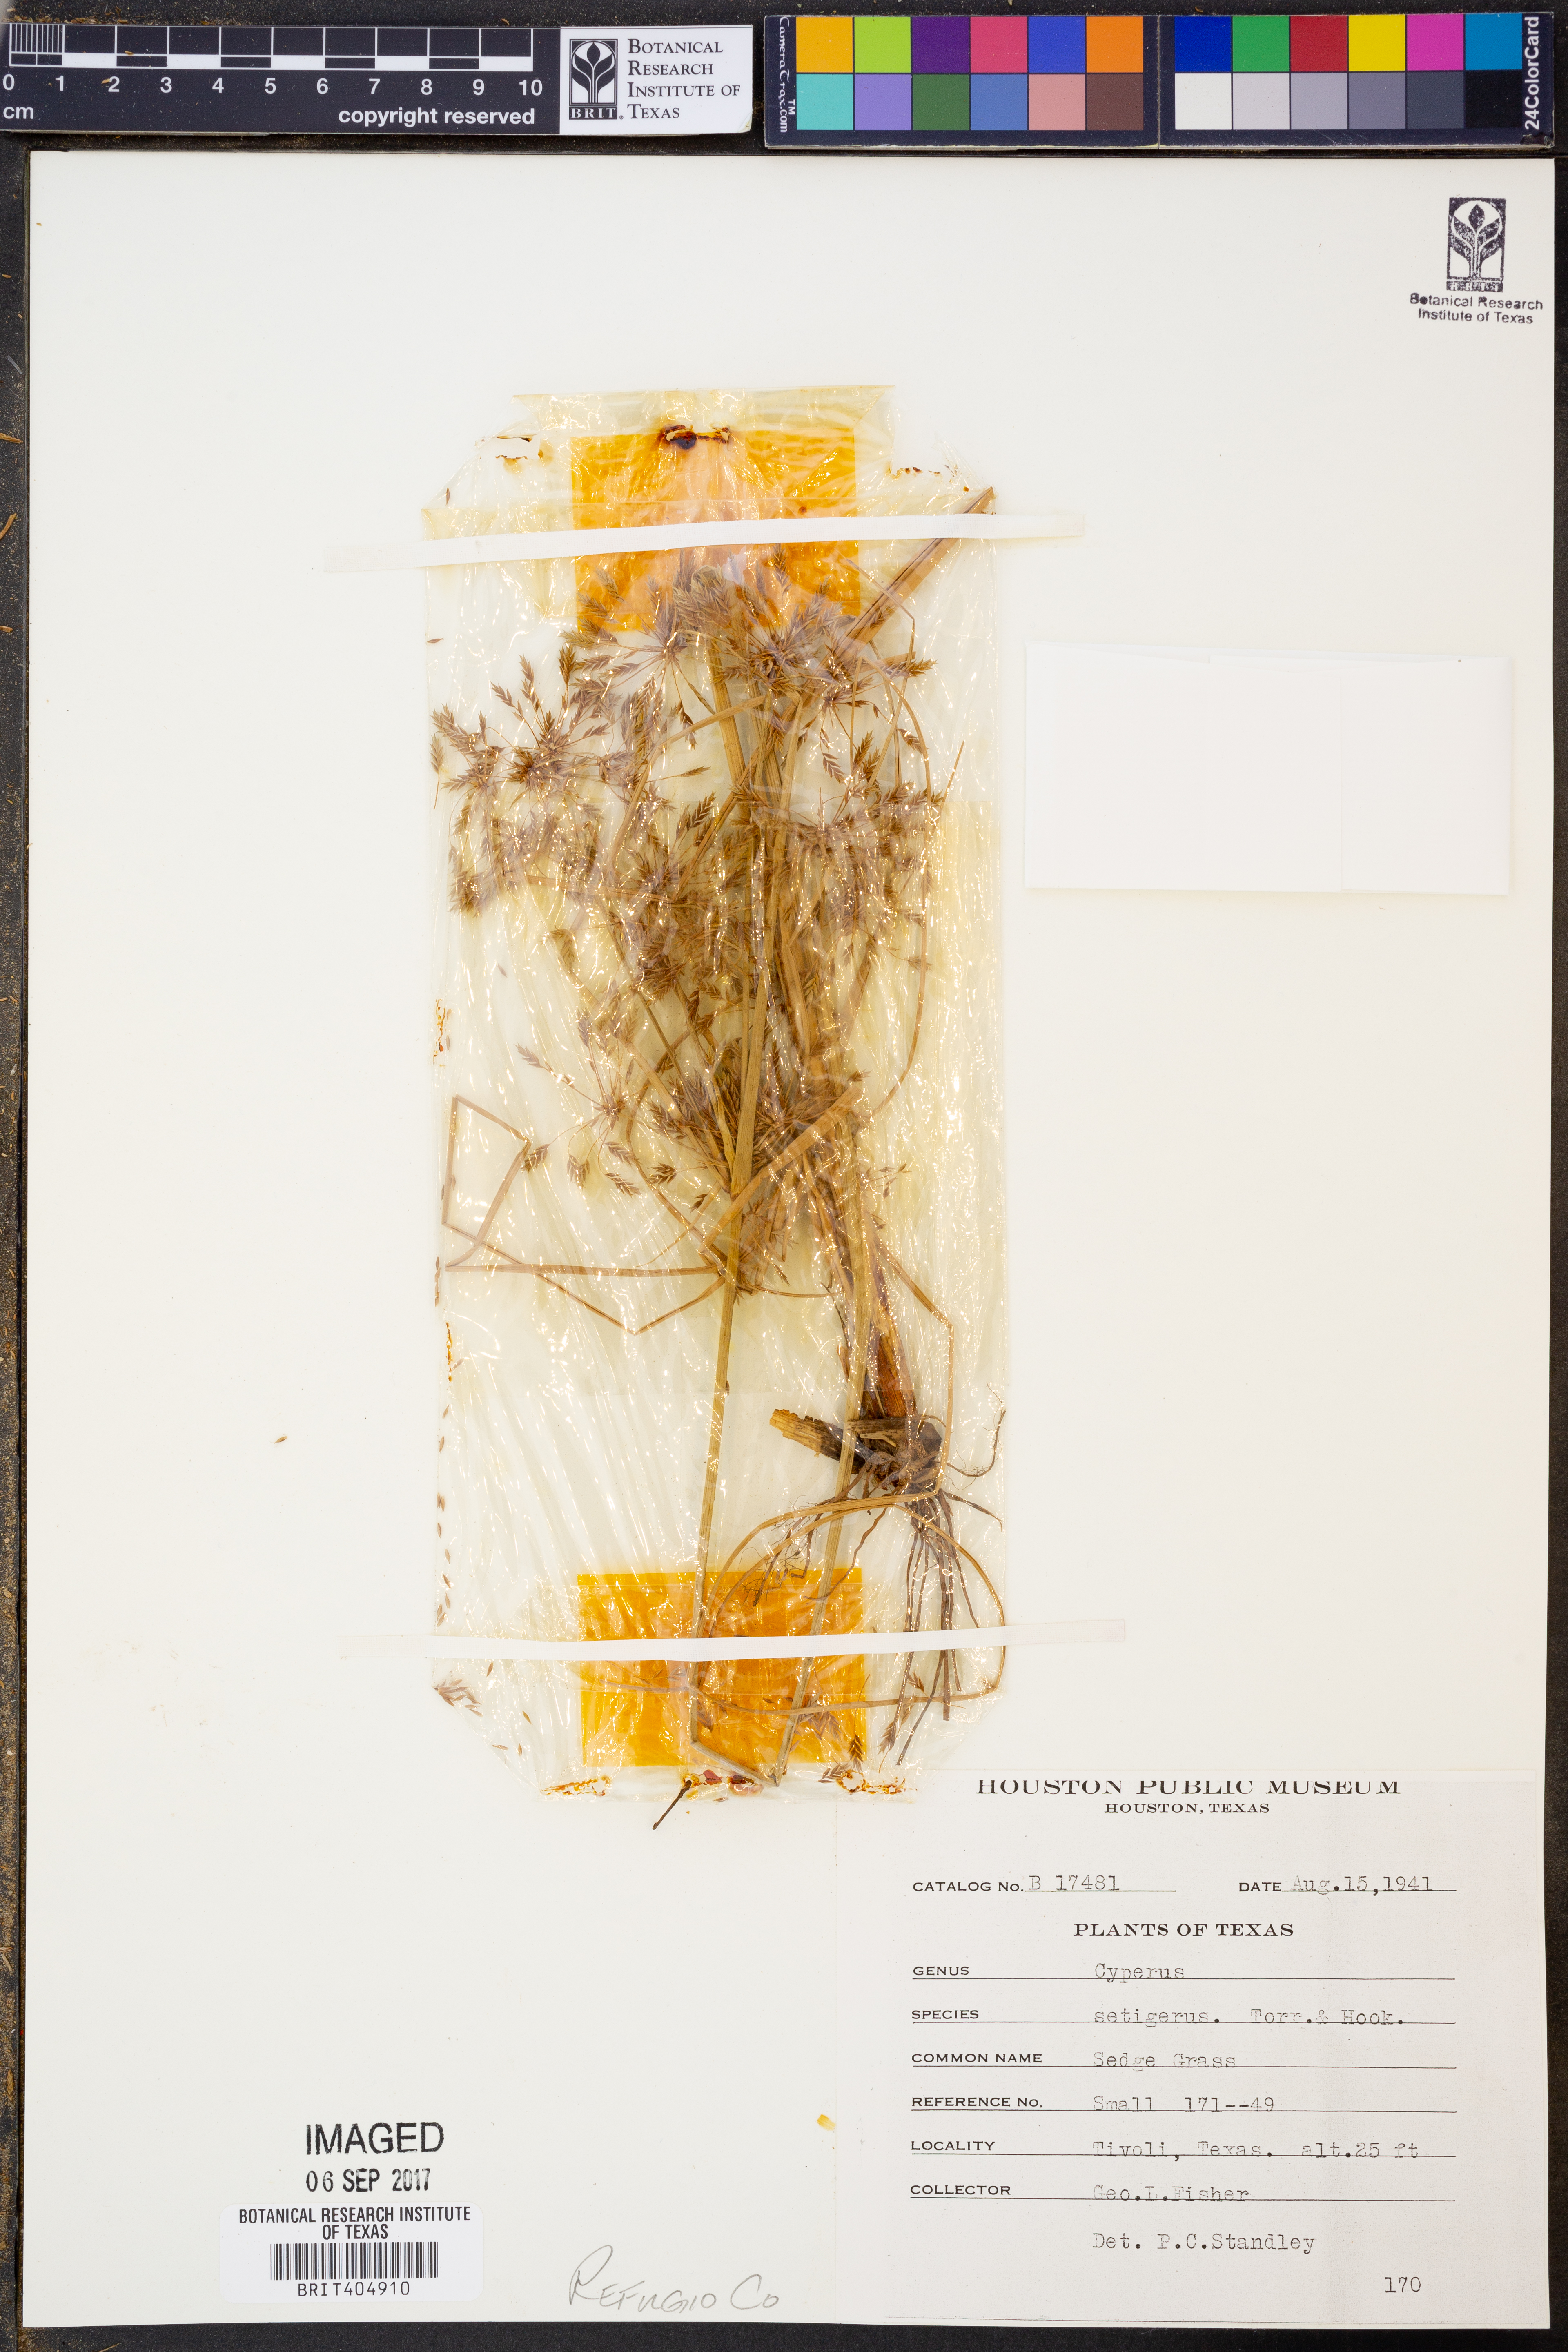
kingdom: Plantae
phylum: Tracheophyta
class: Liliopsida
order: Poales
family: Cyperaceae
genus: Cyperus
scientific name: Cyperus setigerus
